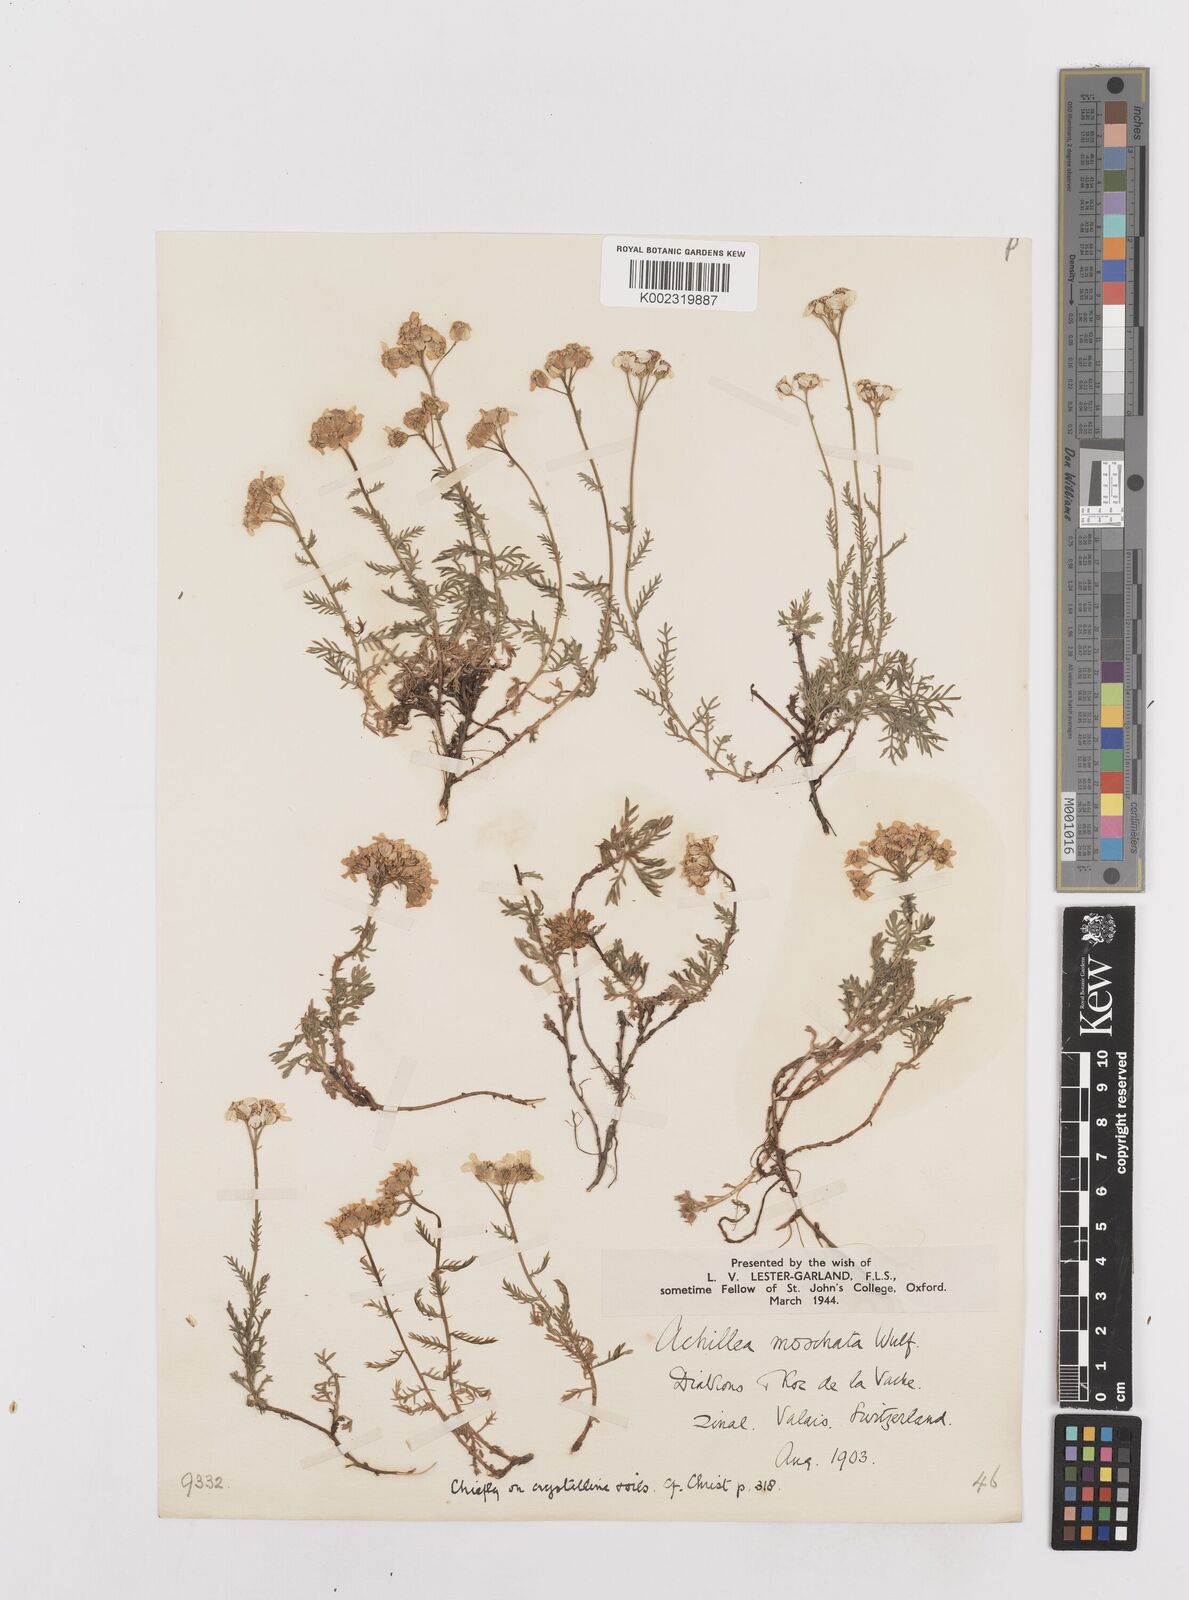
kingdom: Plantae
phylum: Tracheophyta
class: Magnoliopsida
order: Asterales
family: Asteraceae
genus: Achillea
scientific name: Achillea erba-rotta
